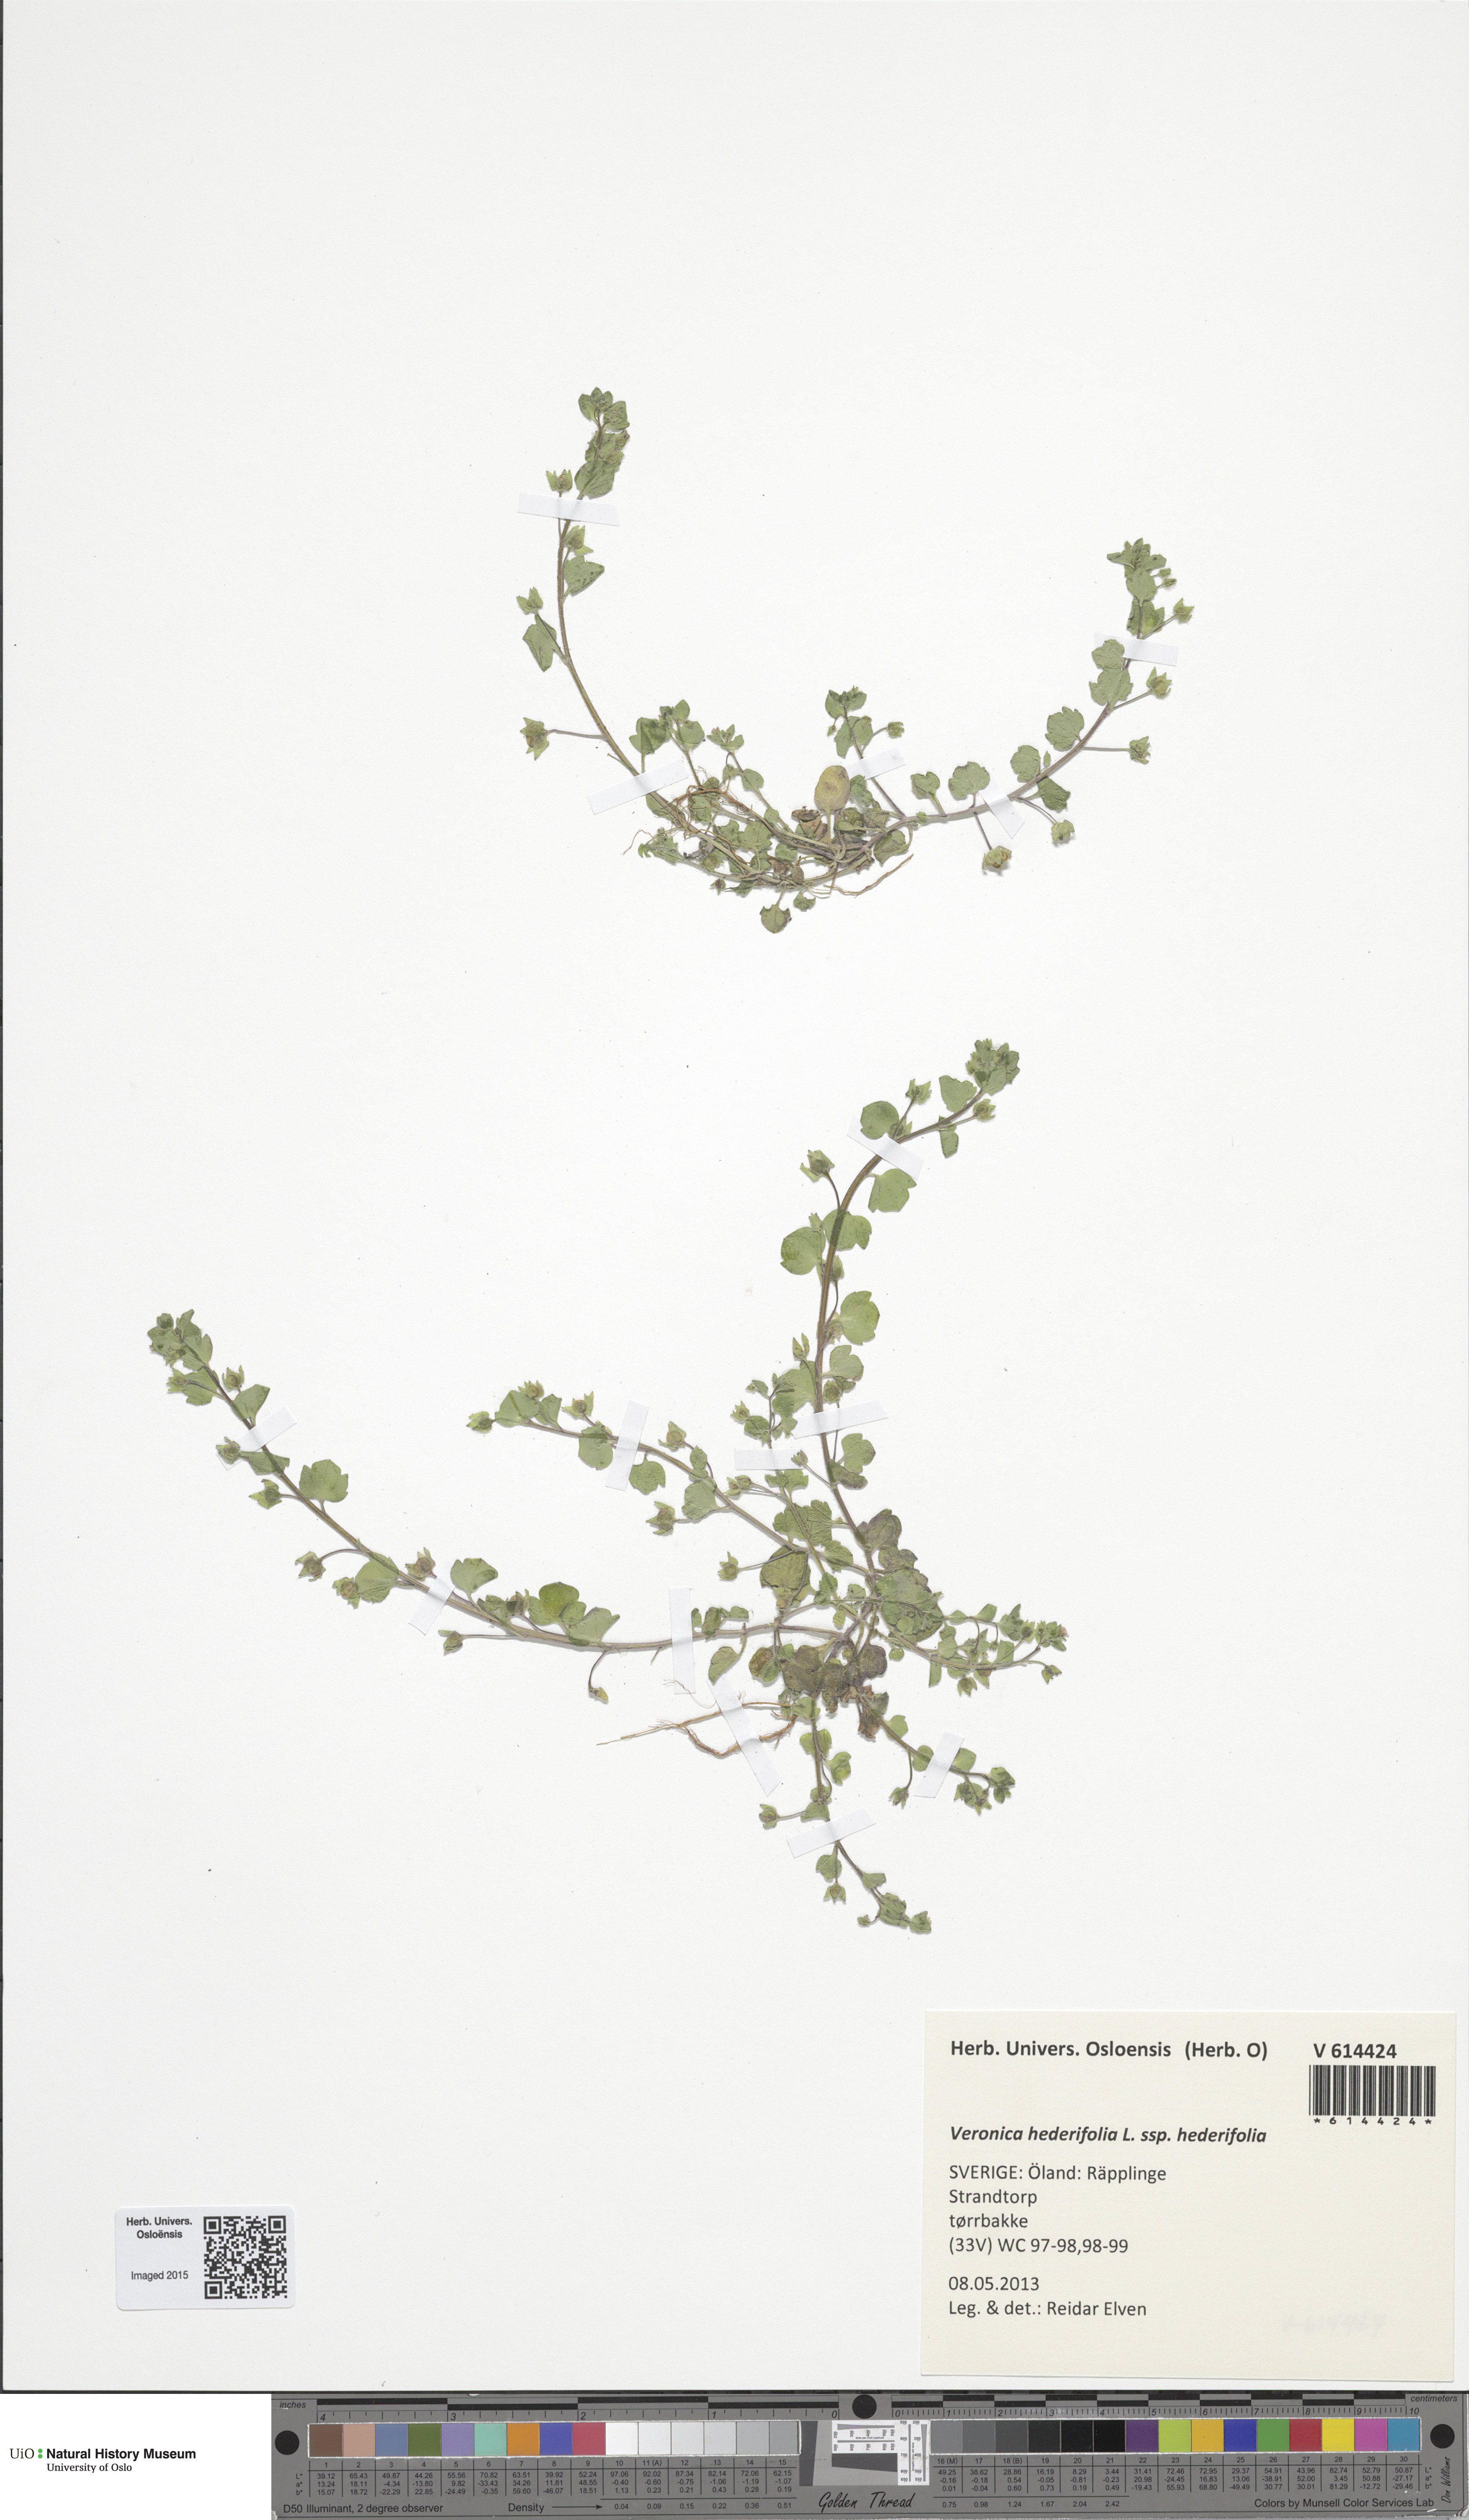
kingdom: Plantae
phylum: Tracheophyta
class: Magnoliopsida
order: Lamiales
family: Plantaginaceae
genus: Veronica
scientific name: Veronica hederifolia
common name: Ivy-leaved speedwell
